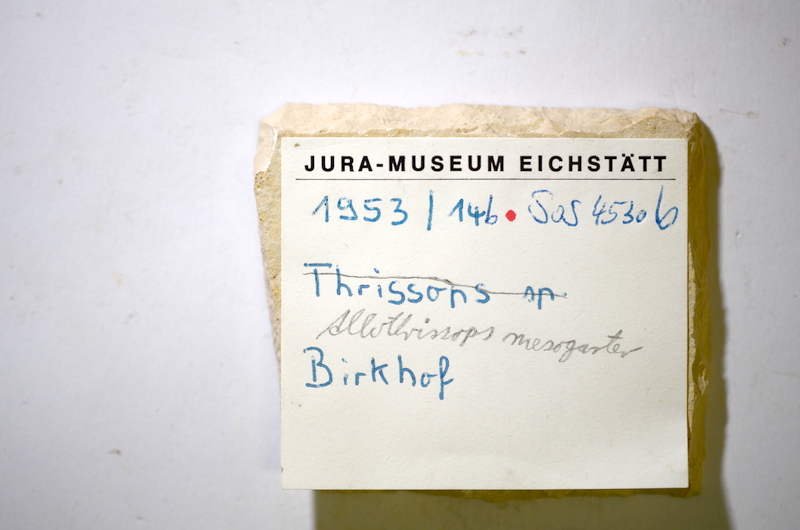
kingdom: Animalia
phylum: Chordata
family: Allothrissopidae
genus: Allothrissops
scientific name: Allothrissops mesogaster
